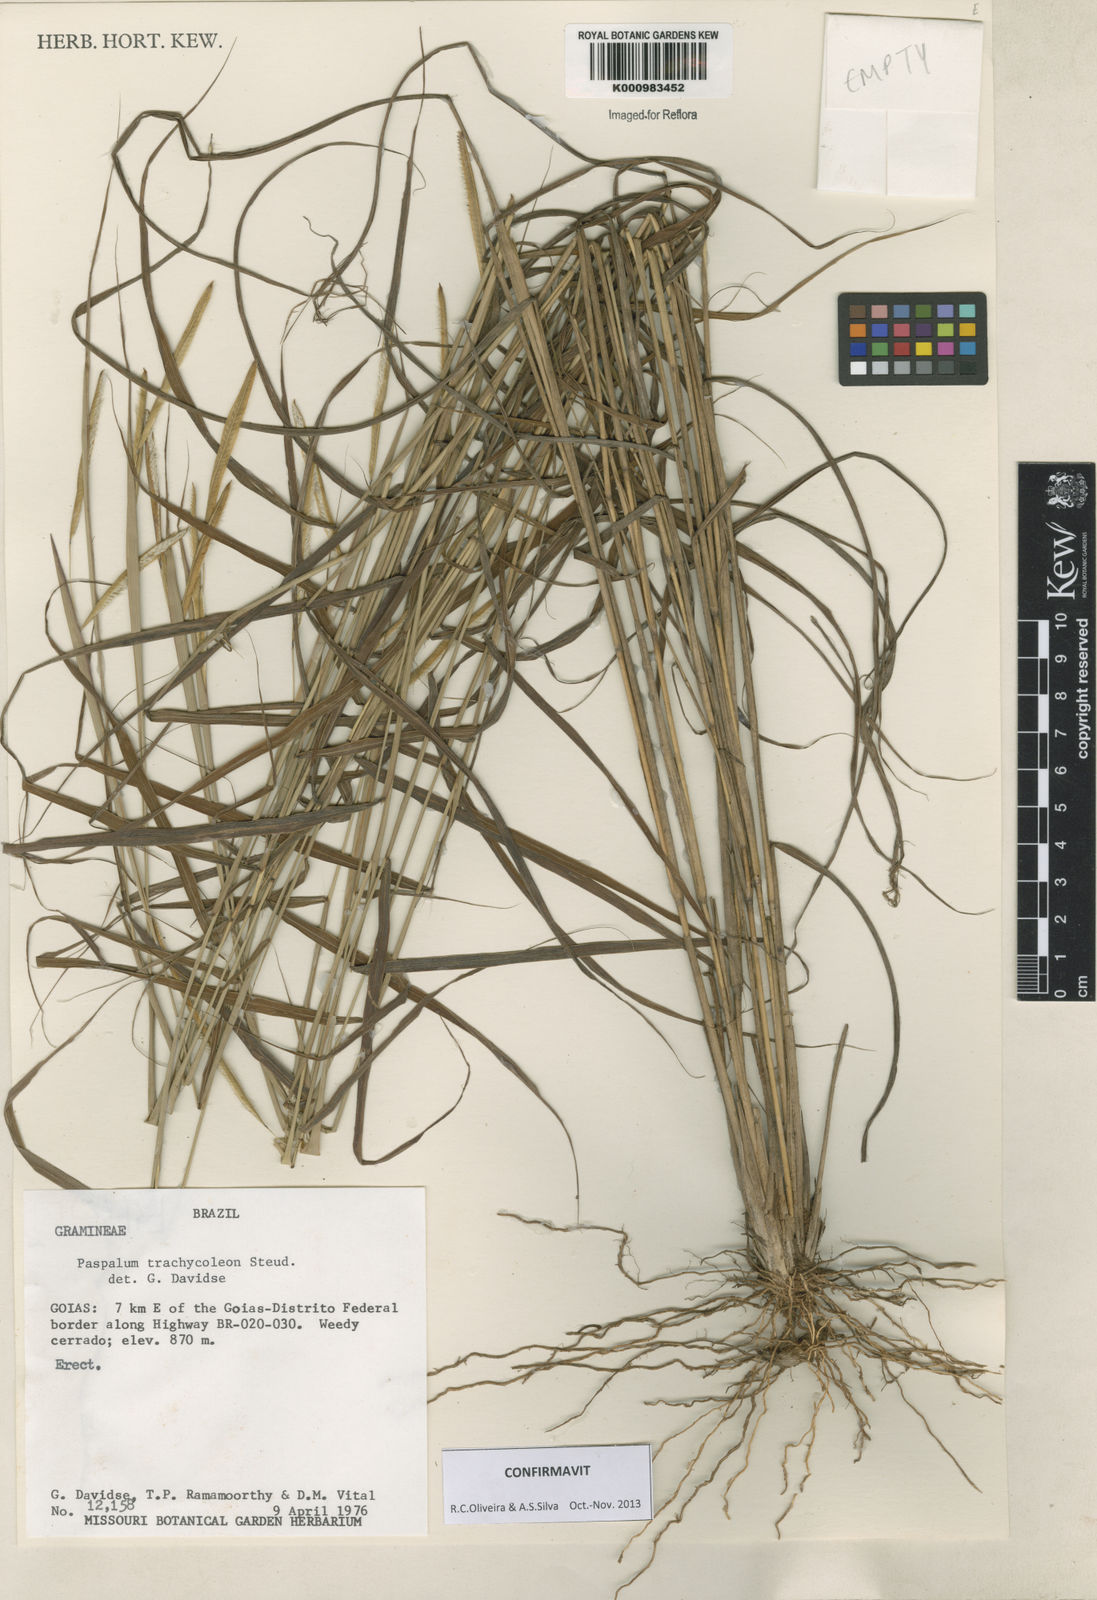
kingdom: Plantae
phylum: Tracheophyta
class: Liliopsida
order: Poales
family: Poaceae
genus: Paspalum
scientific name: Paspalum trachycoleon
